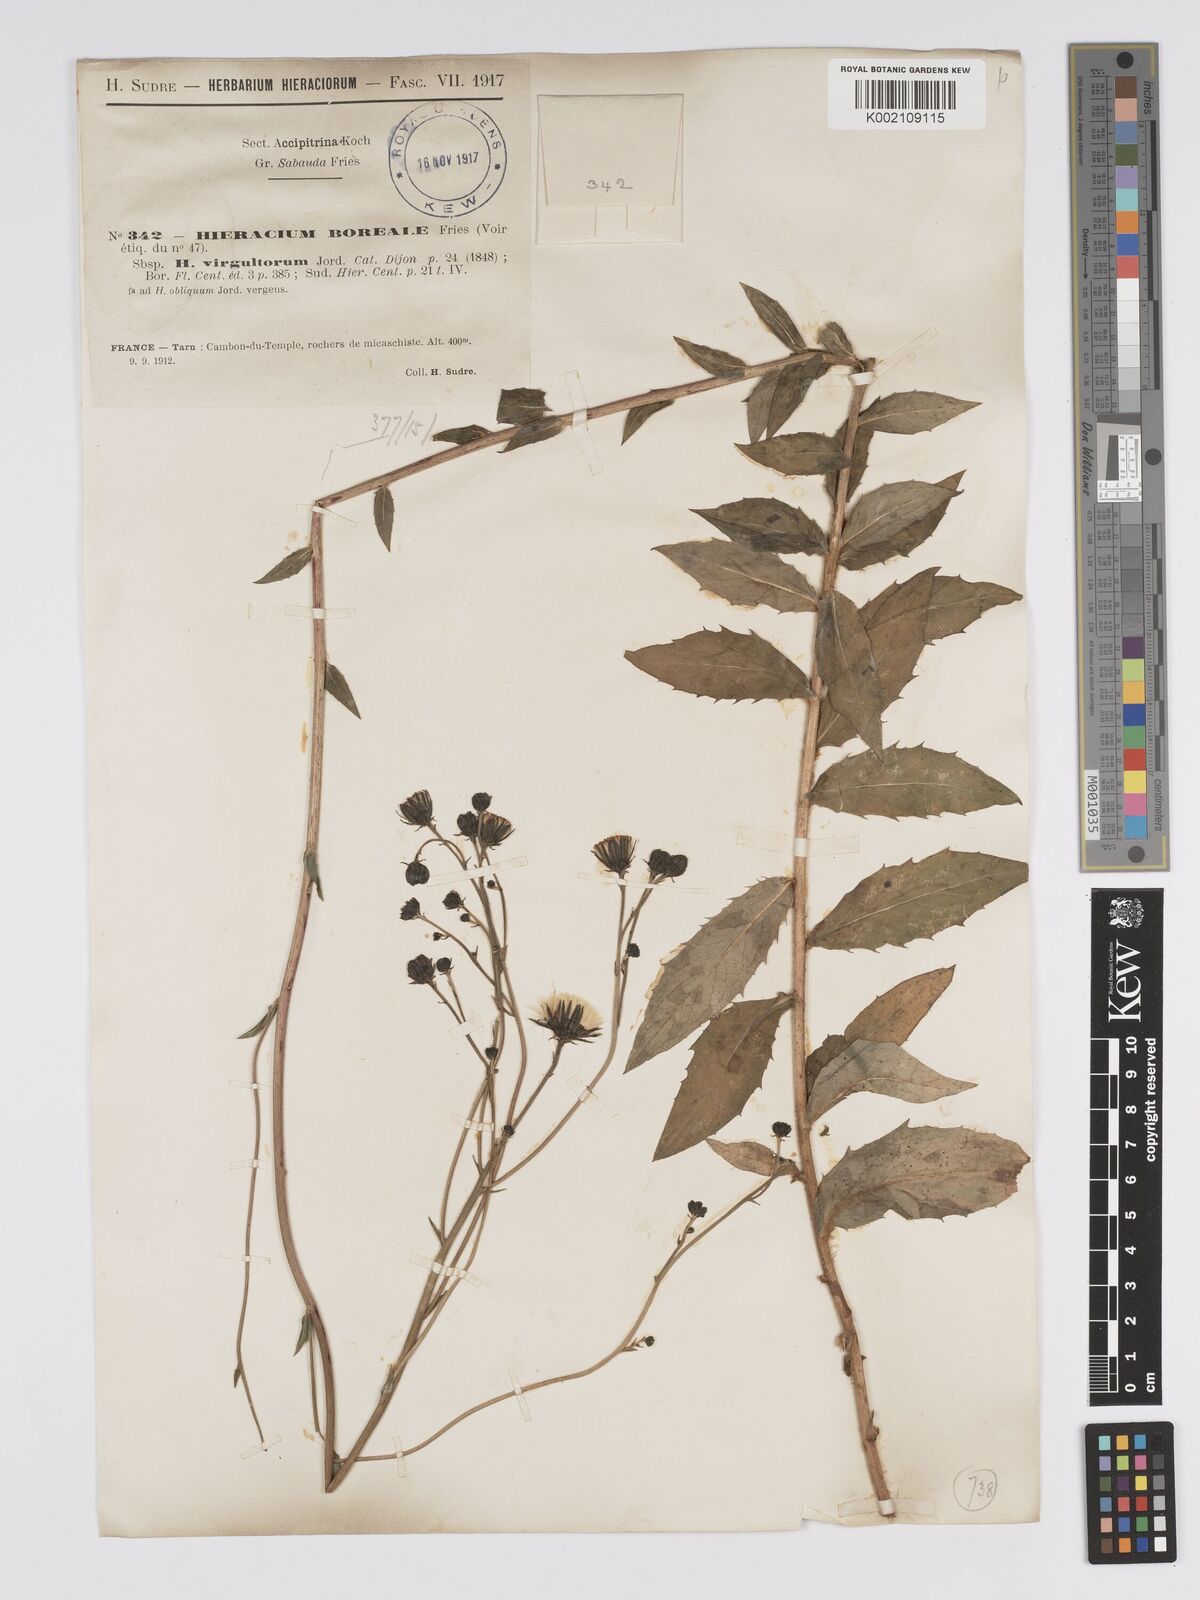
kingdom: Plantae
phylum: Tracheophyta
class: Magnoliopsida
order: Asterales
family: Asteraceae
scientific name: Asteraceae
